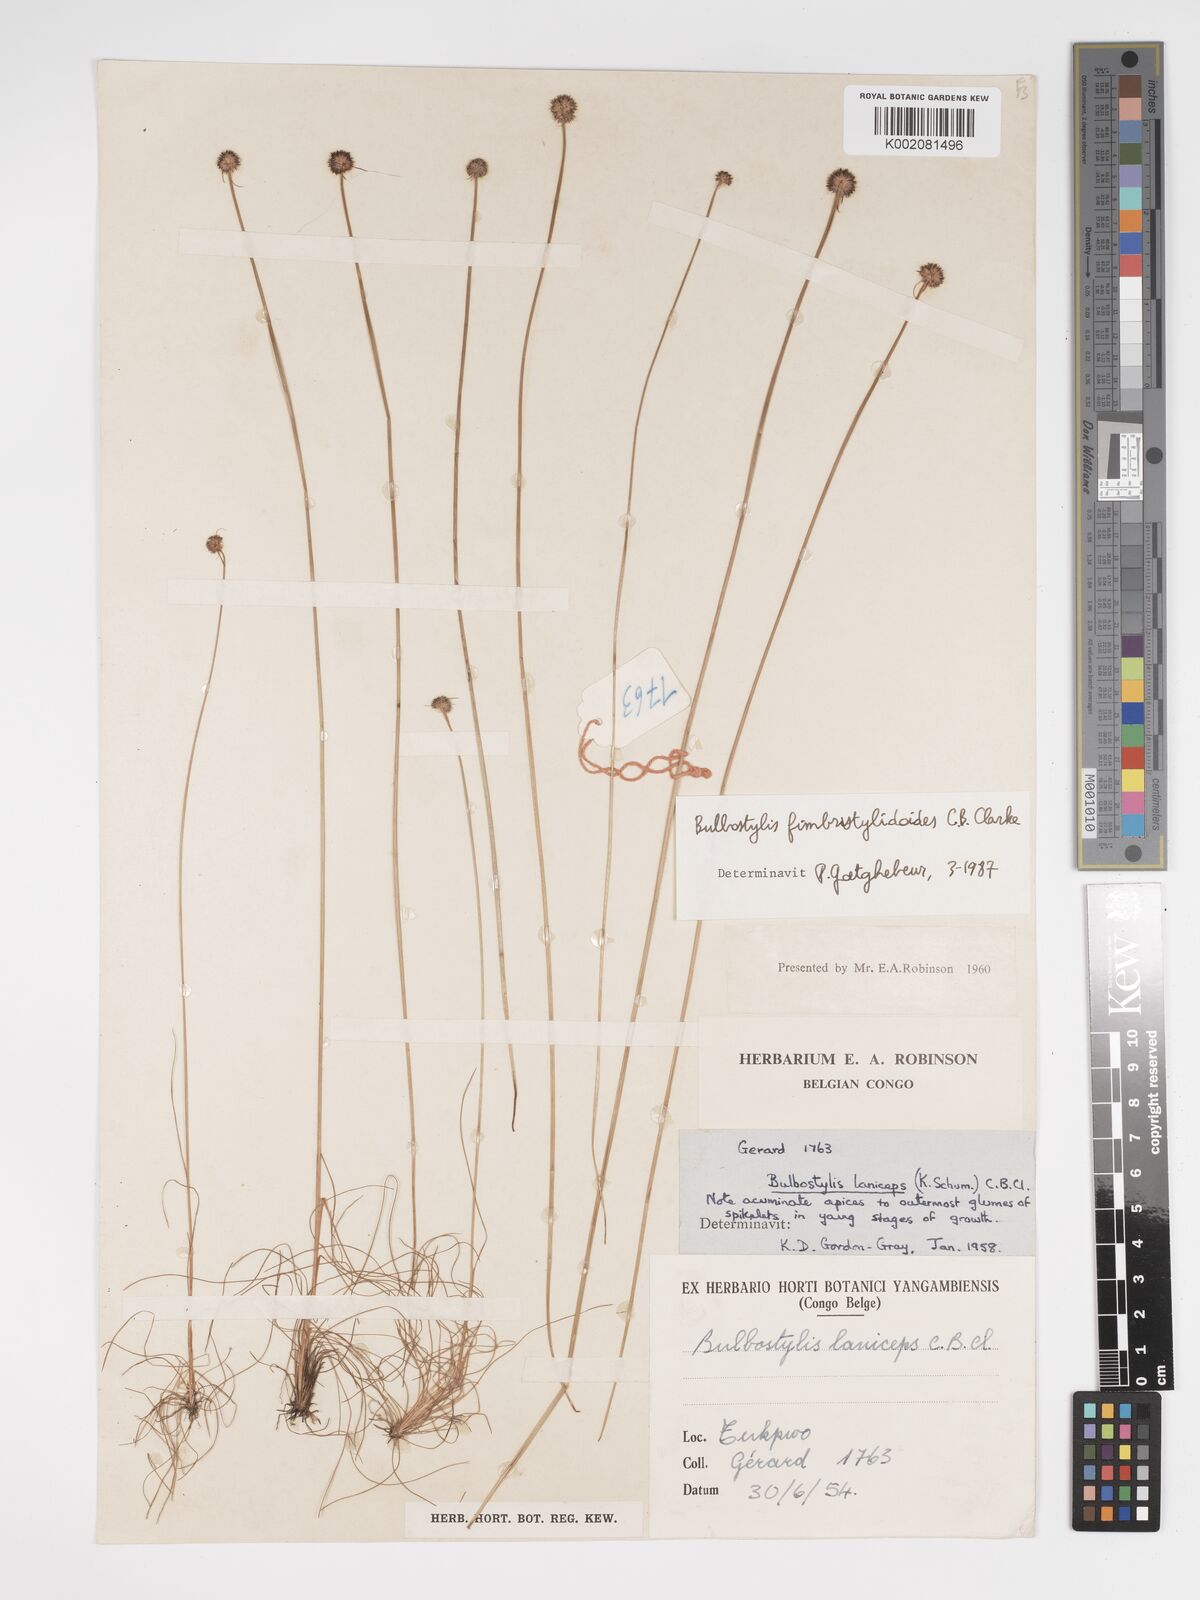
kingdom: Plantae
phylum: Tracheophyta
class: Liliopsida
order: Poales
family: Cyperaceae
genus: Bulbostylis
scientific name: Bulbostylis fimbristyloides
